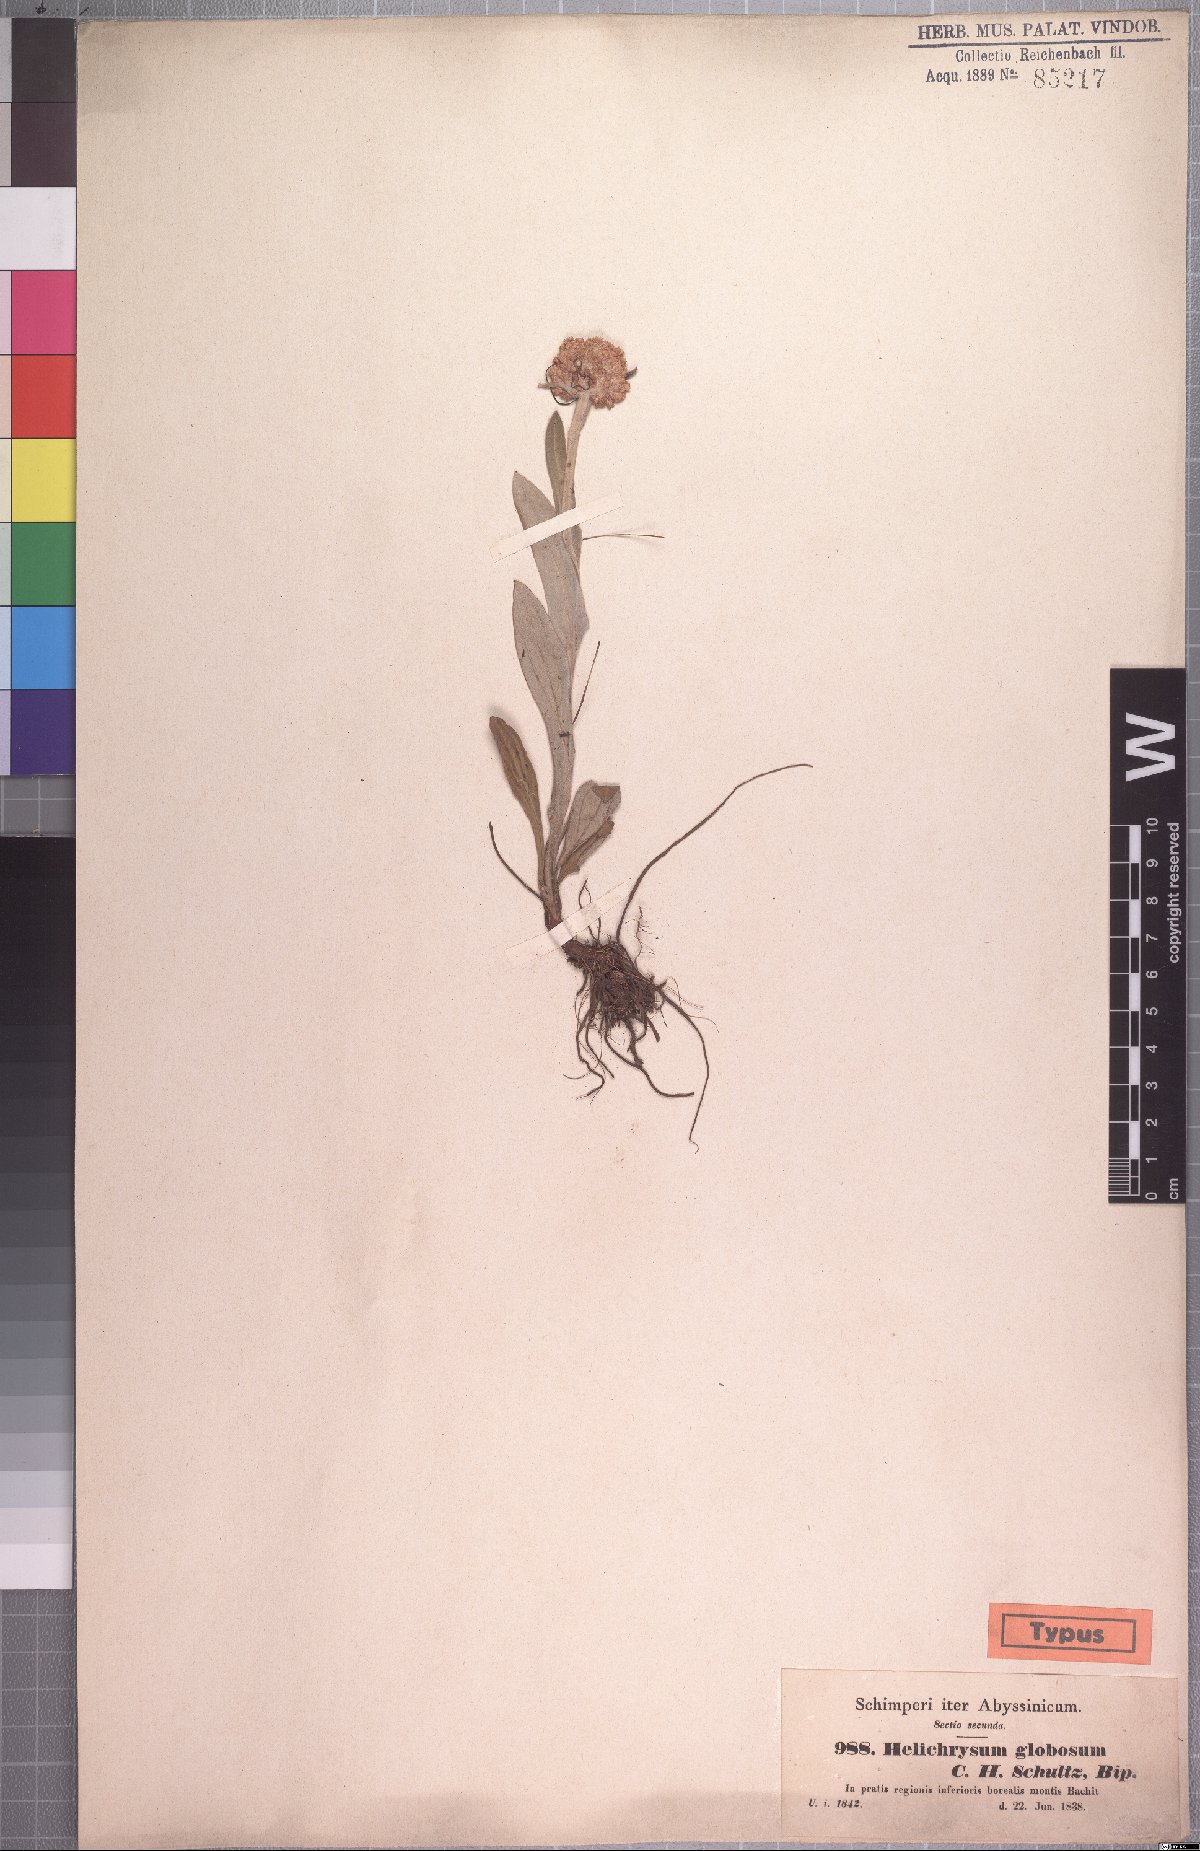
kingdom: Plantae
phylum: Tracheophyta
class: Magnoliopsida
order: Asterales
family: Asteraceae
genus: Helichrysum
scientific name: Helichrysum globosum
